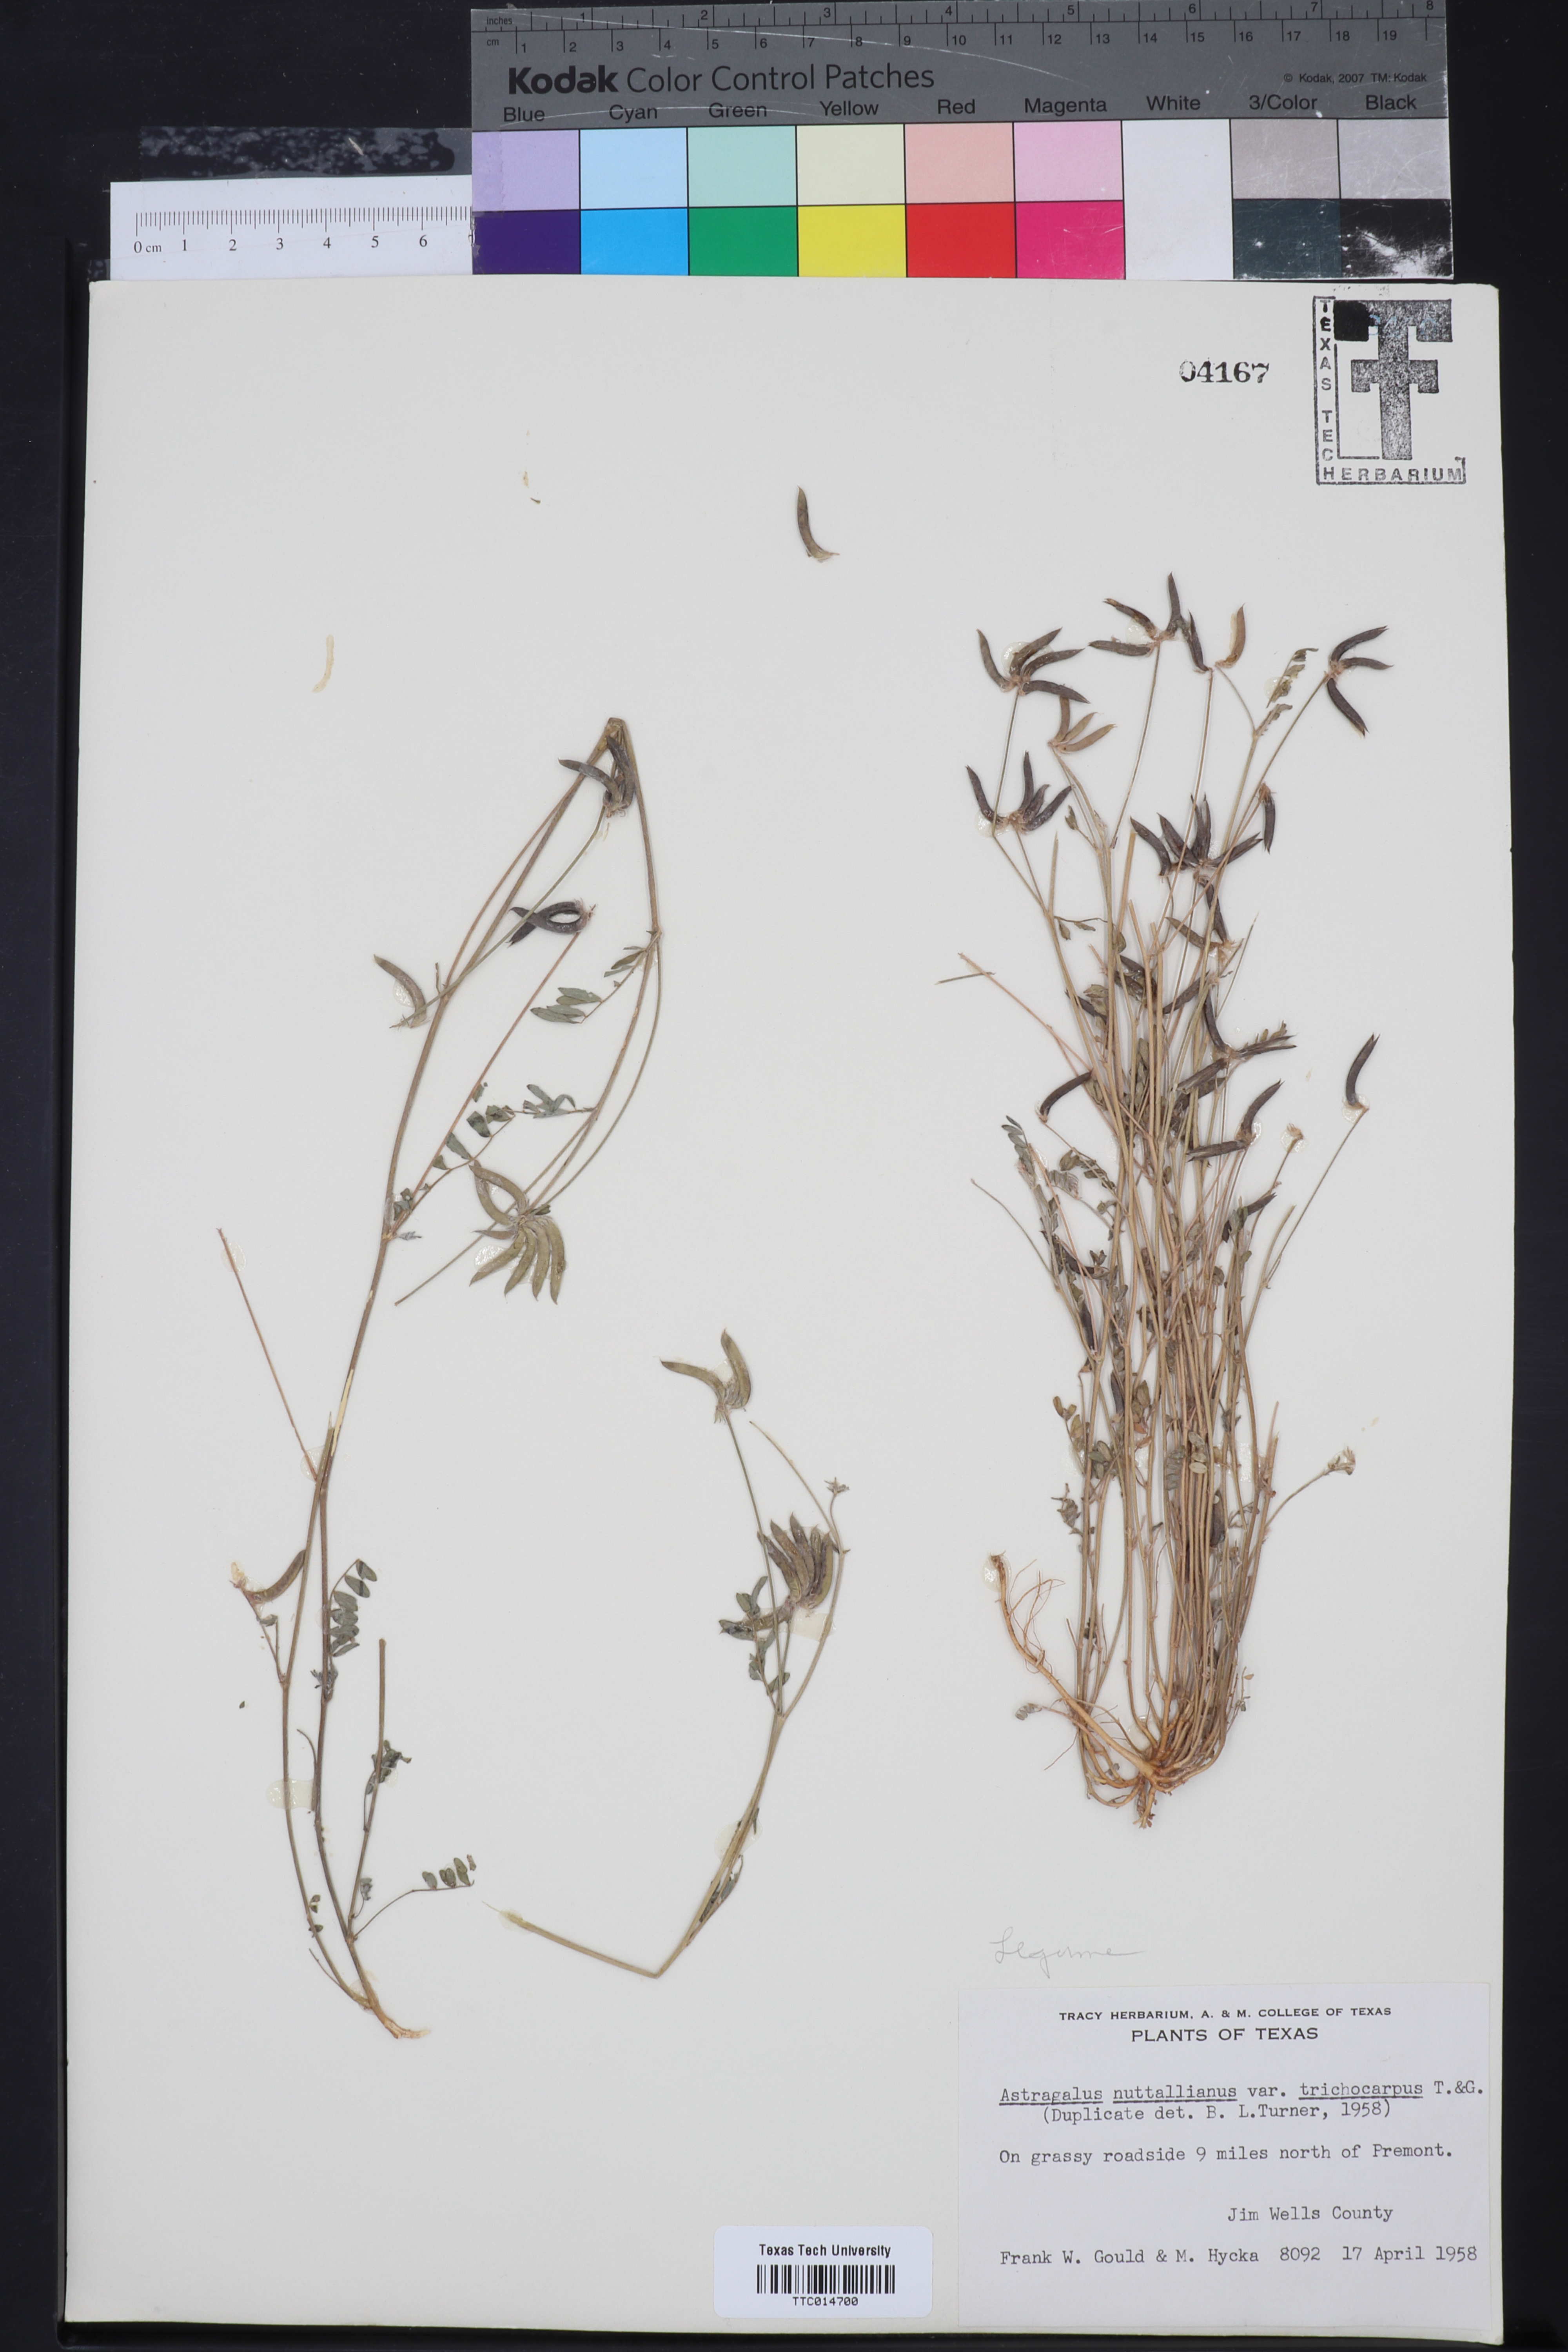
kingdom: Plantae
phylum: Tracheophyta
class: Magnoliopsida
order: Fabales
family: Fabaceae
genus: Astragalus
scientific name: Astragalus nuttallianus
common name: Smallflowered milkvetch
